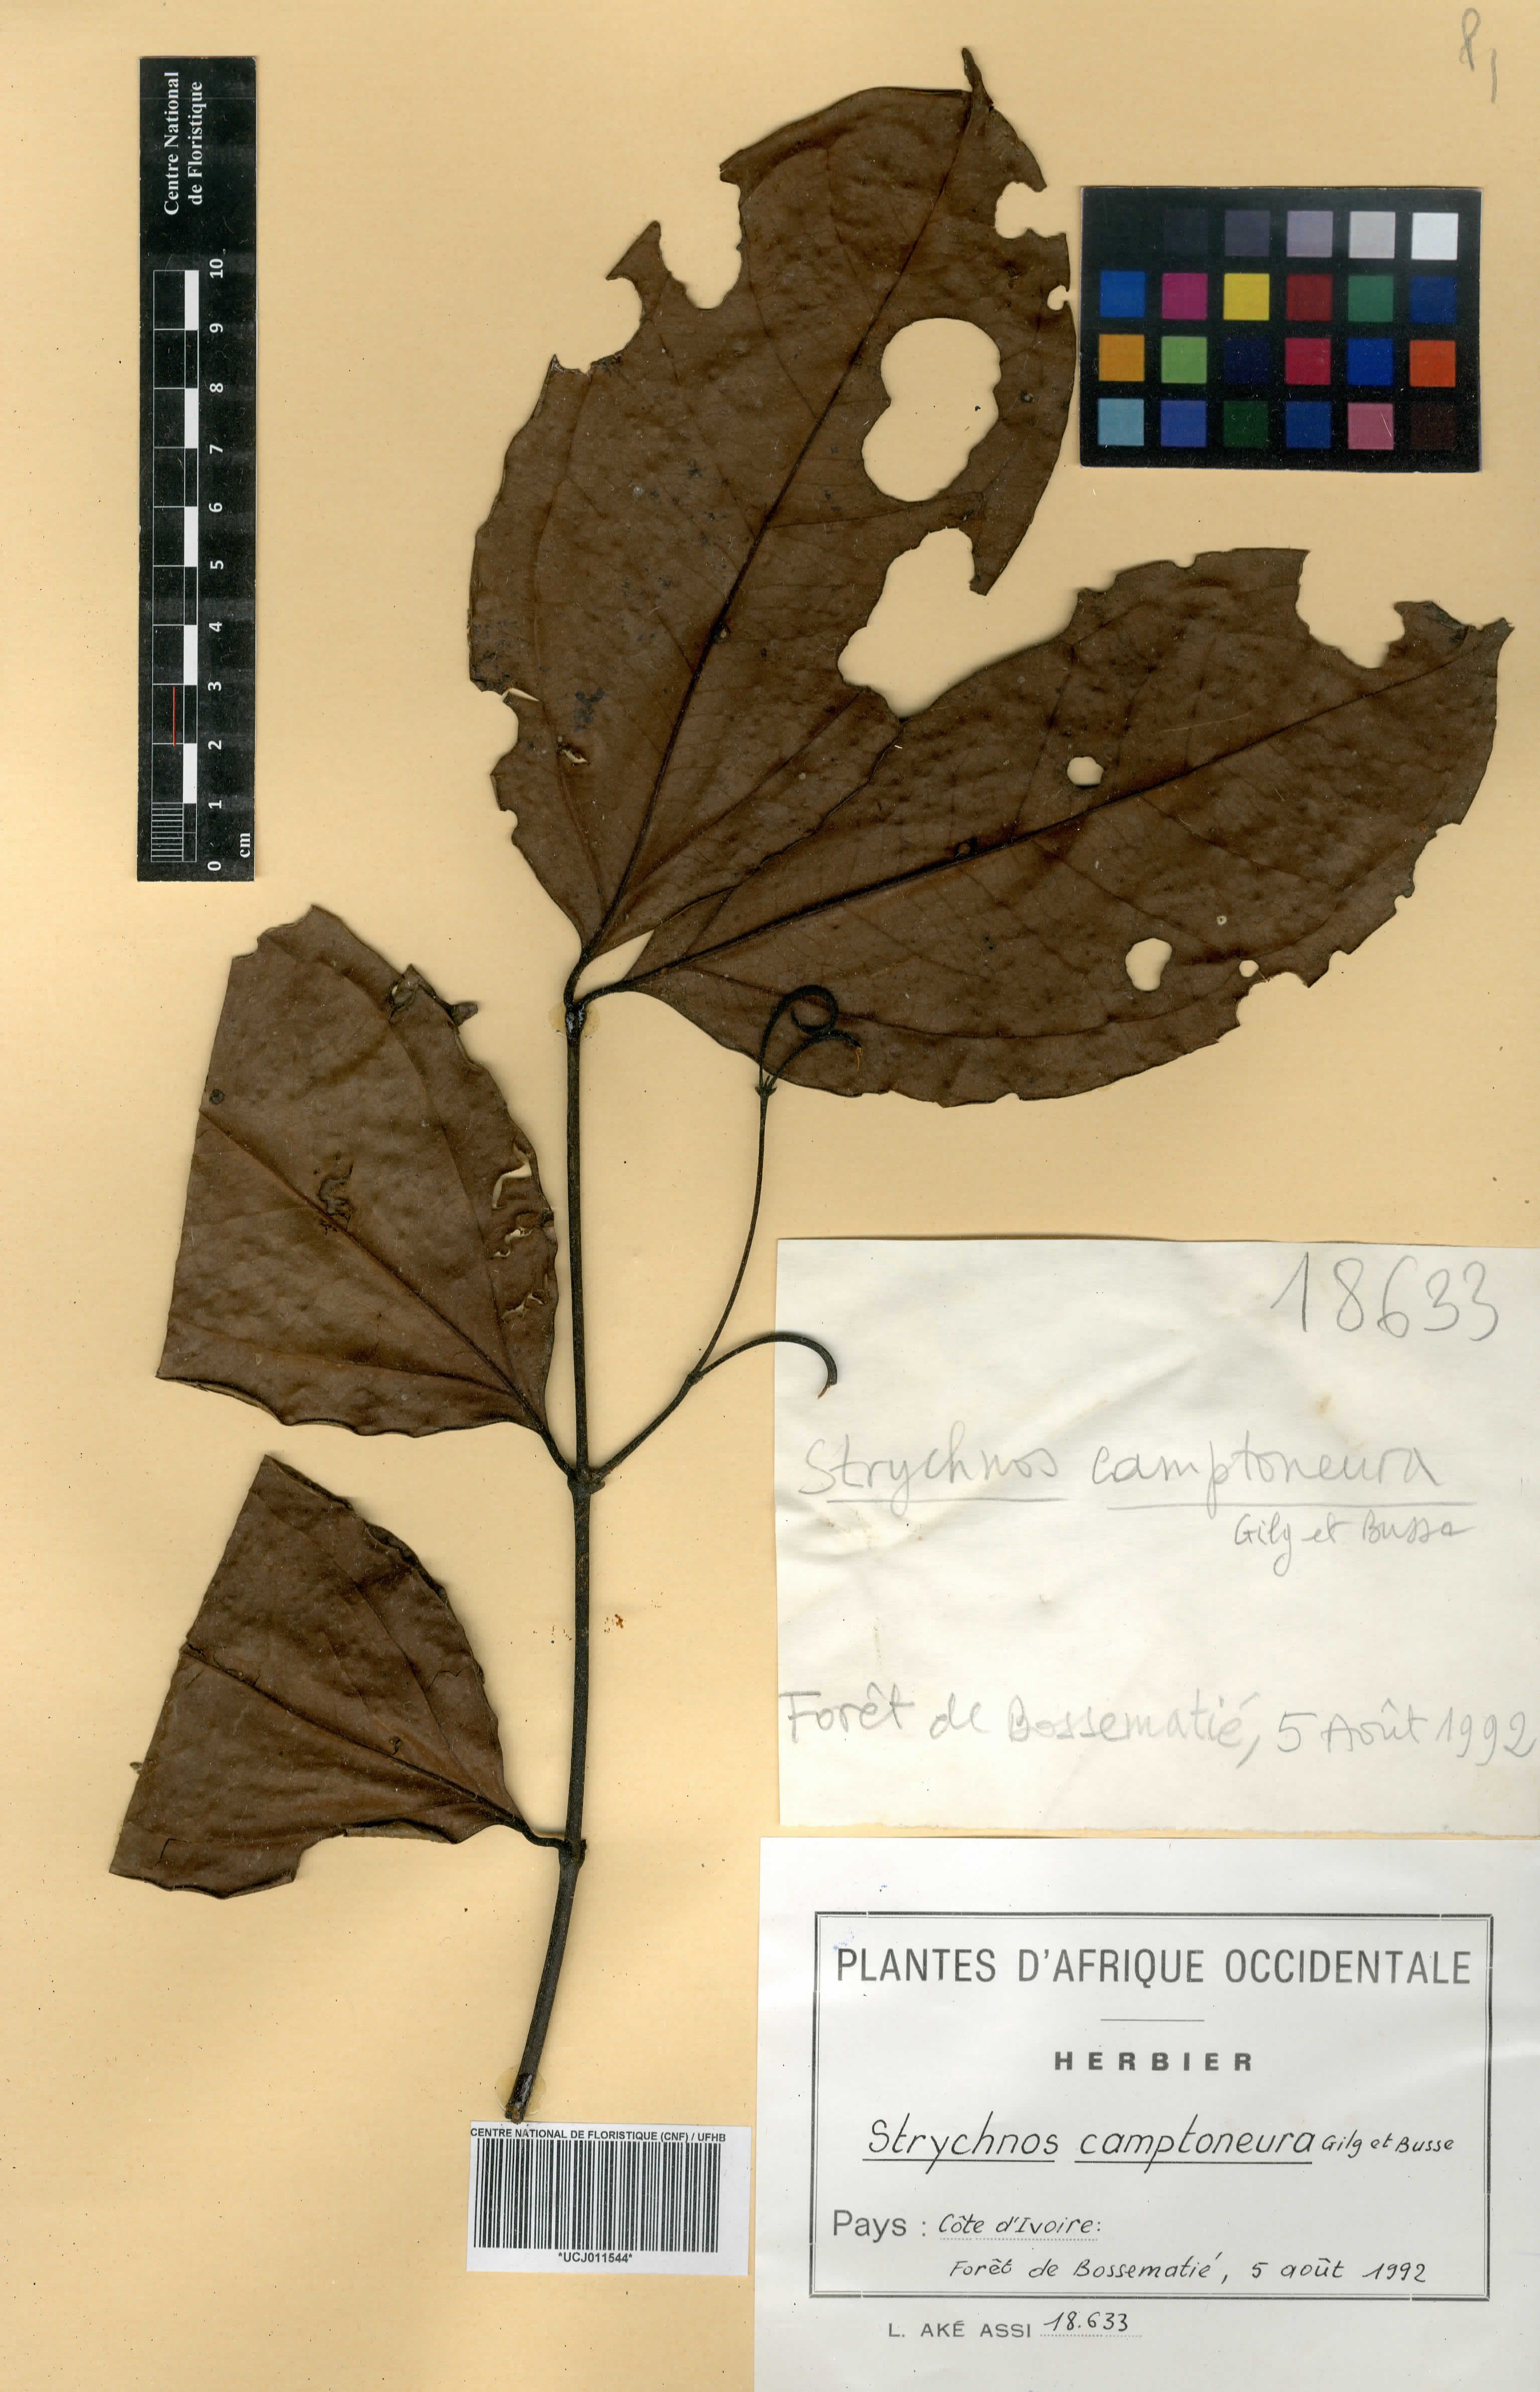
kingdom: Plantae
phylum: Tracheophyta
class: Magnoliopsida
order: Gentianales
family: Loganiaceae
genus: Strychnos
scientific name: Strychnos camptoneura
